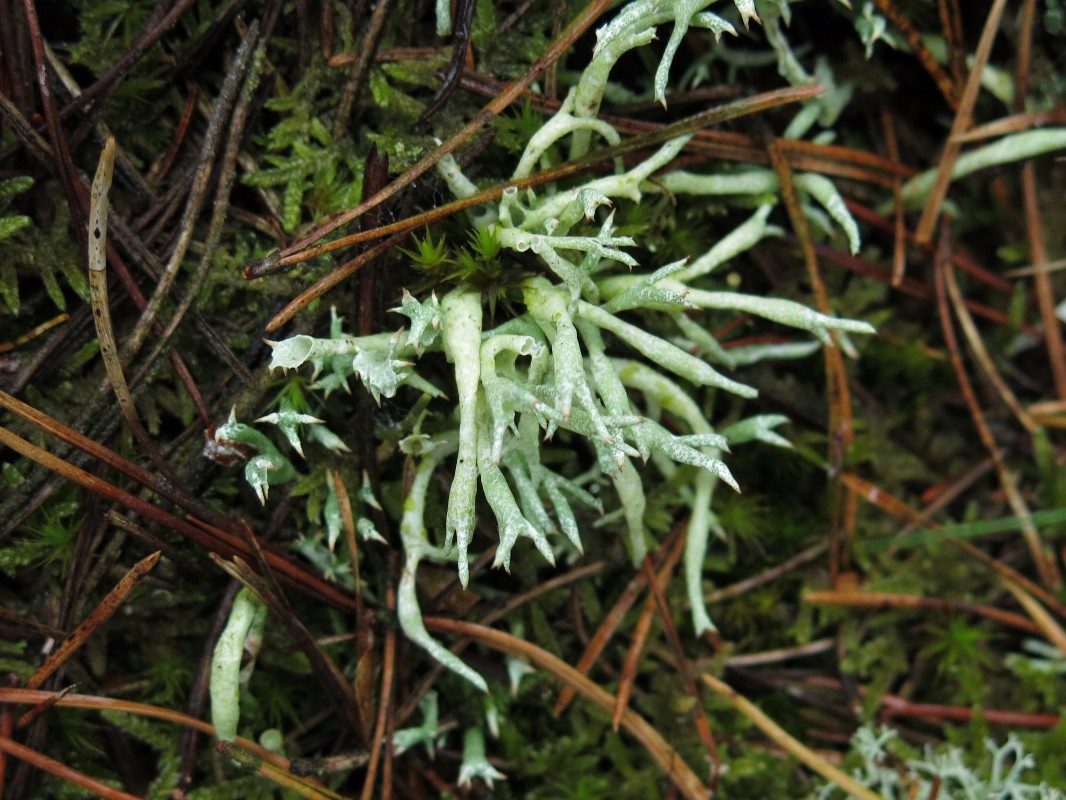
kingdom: Fungi
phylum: Ascomycota
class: Lecanoromycetes
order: Lecanorales
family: Cladoniaceae
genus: Cladonia
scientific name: Cladonia uncialis
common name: pigget bægerlav
